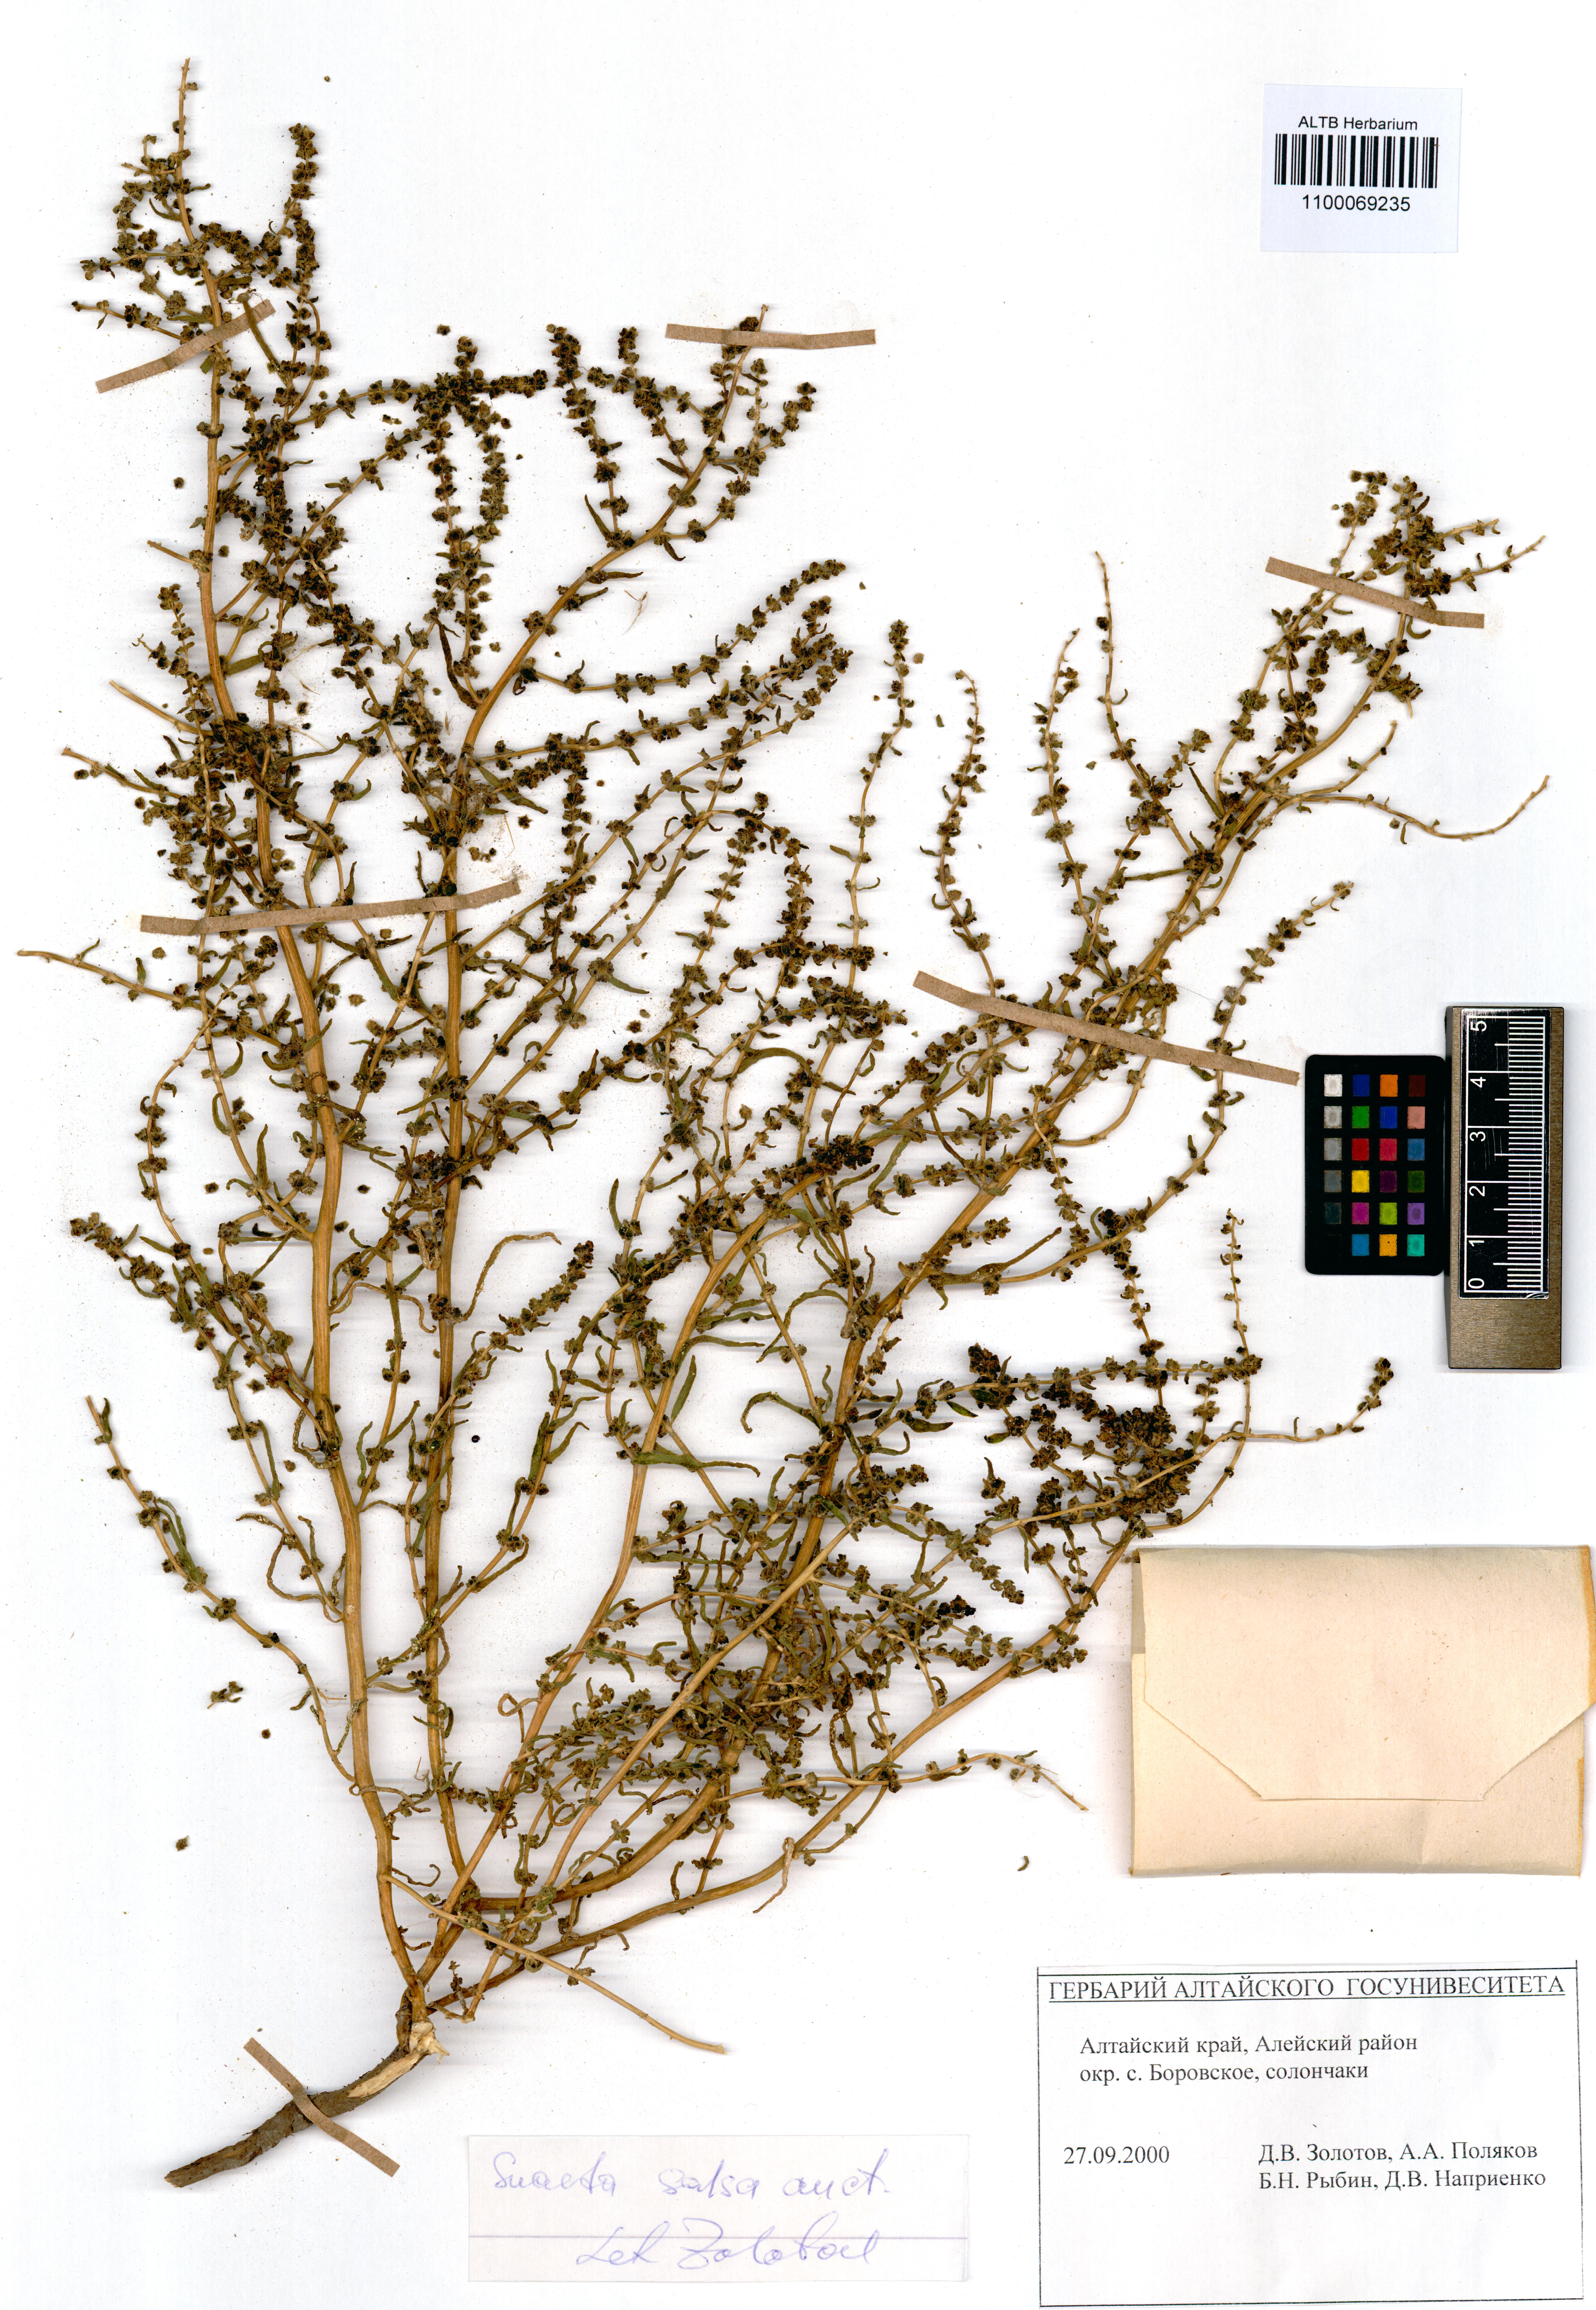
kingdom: Plantae
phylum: Tracheophyta
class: Magnoliopsida
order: Caryophyllales
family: Amaranthaceae
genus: Suaeda
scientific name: Suaeda salsa
